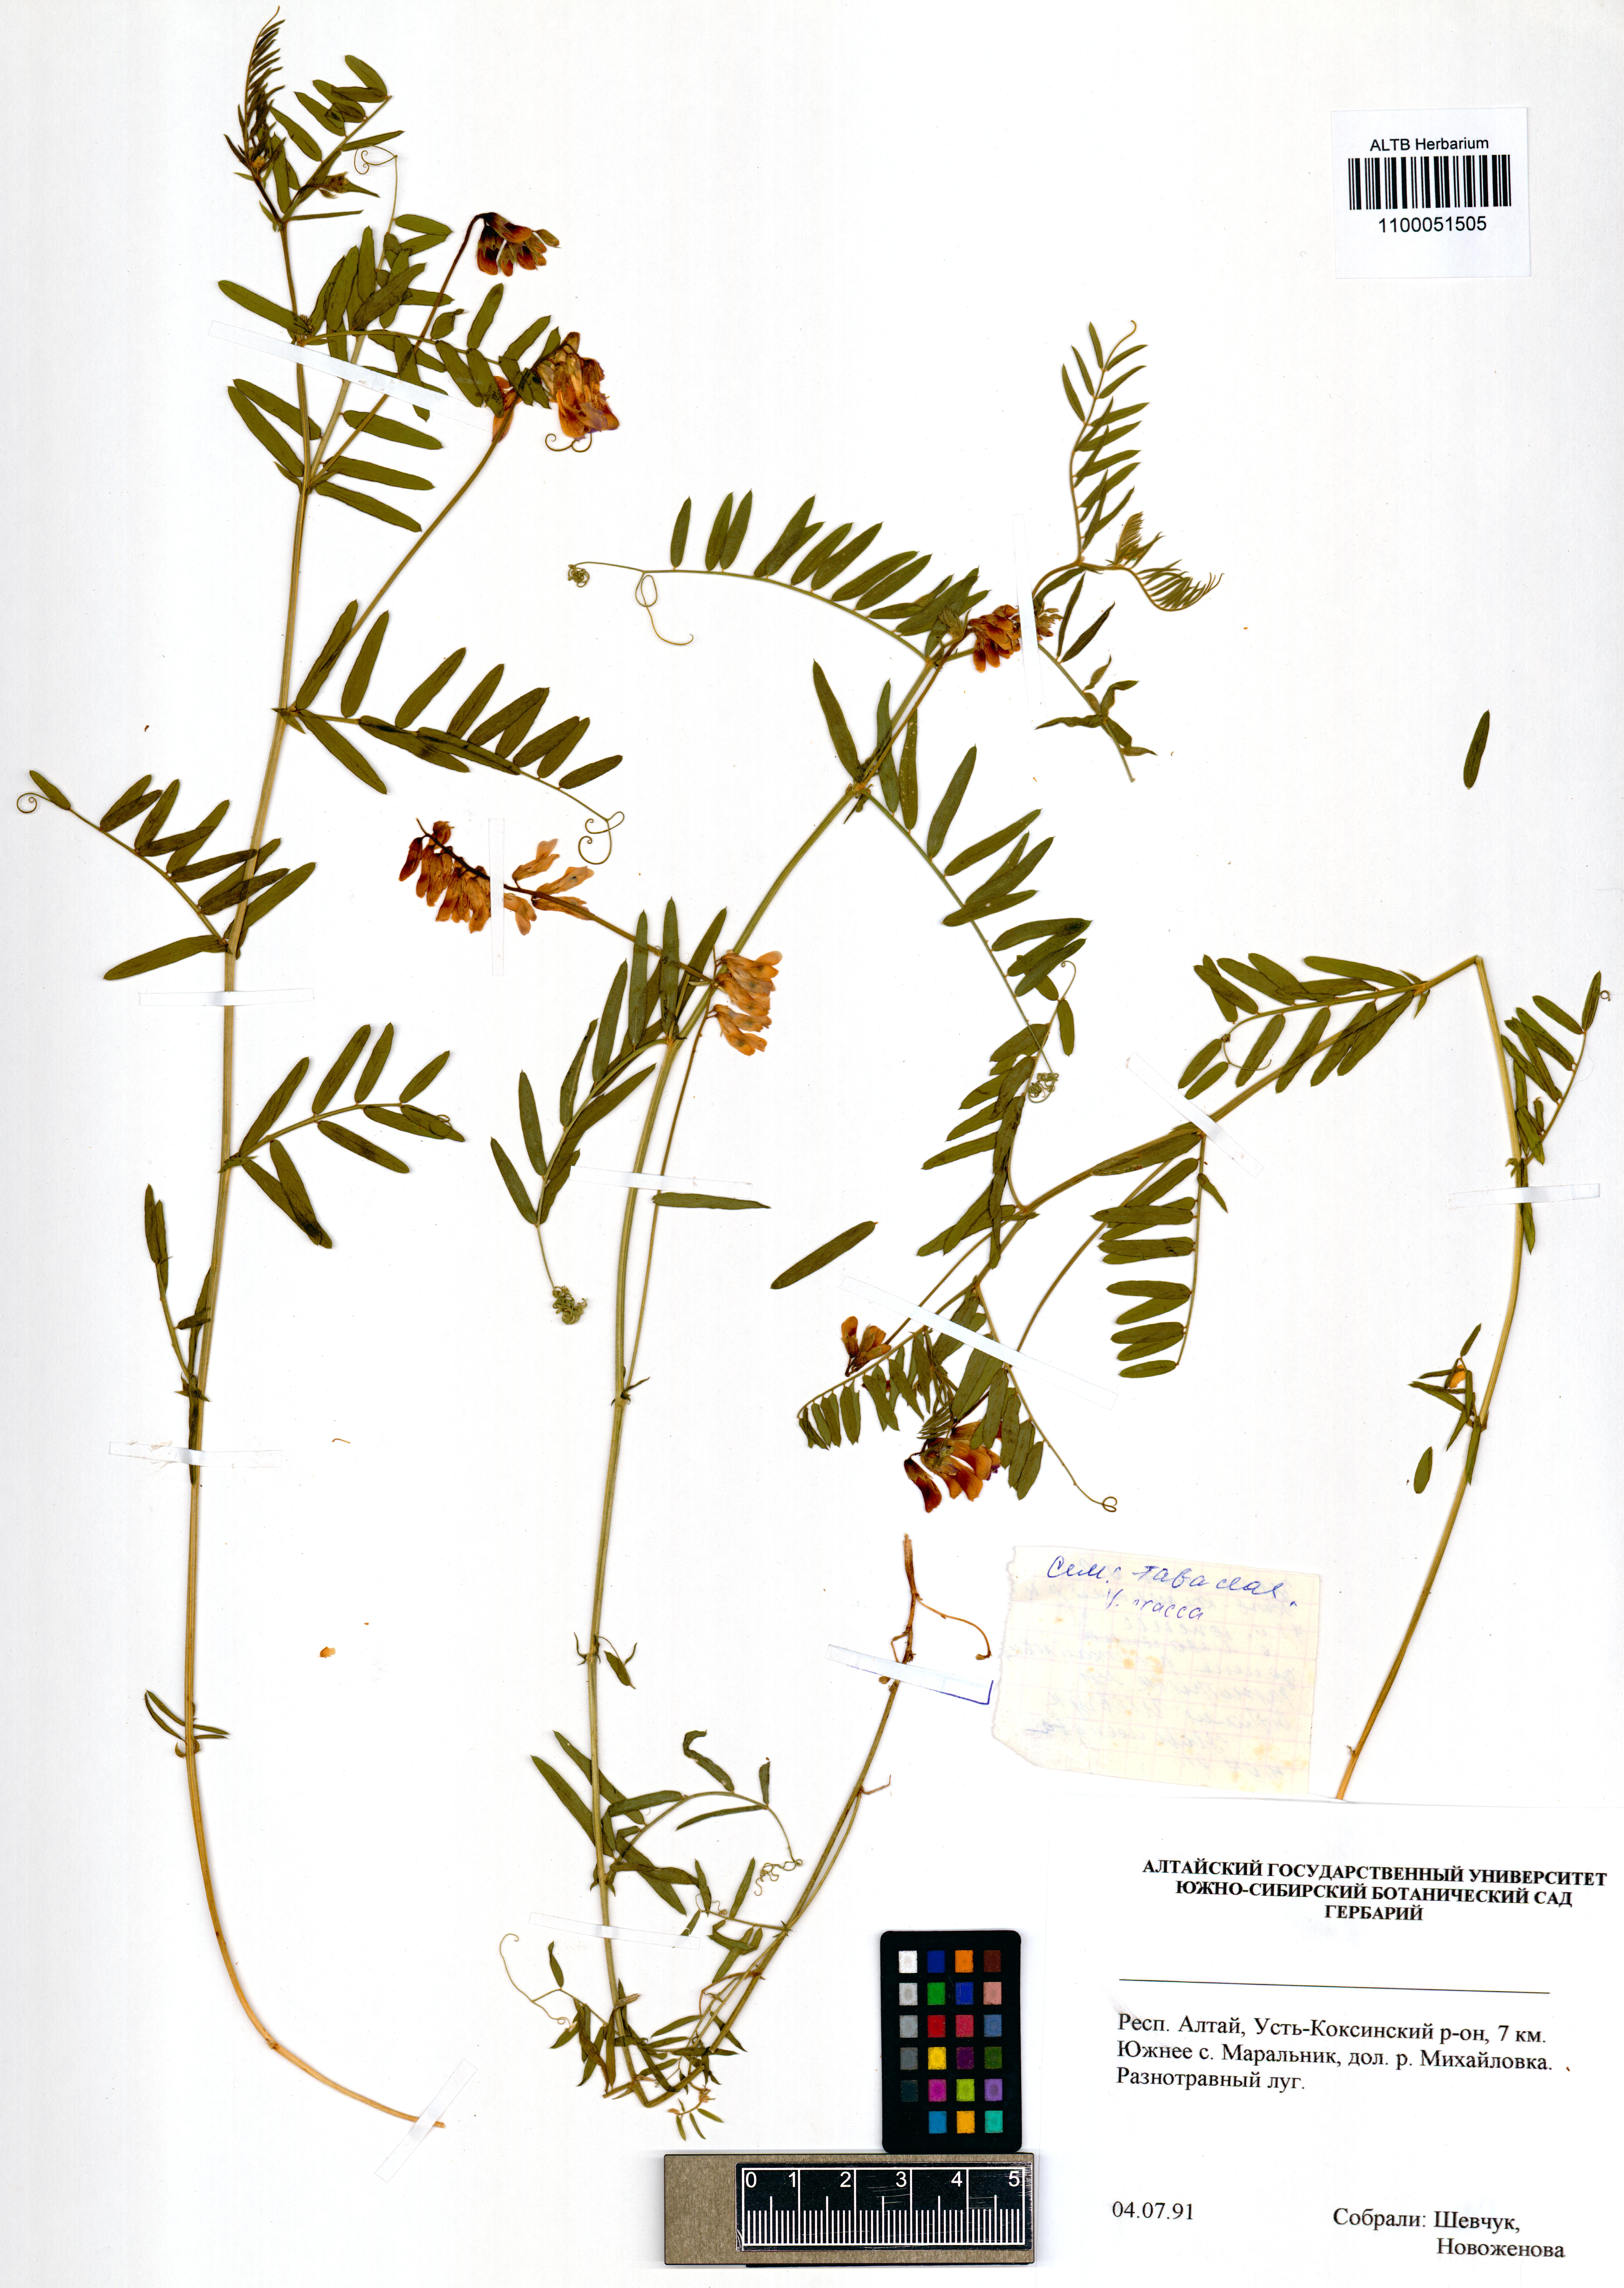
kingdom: Plantae
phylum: Tracheophyta
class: Magnoliopsida
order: Fabales
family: Fabaceae
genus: Vicia
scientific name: Vicia cracca
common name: Bird vetch
